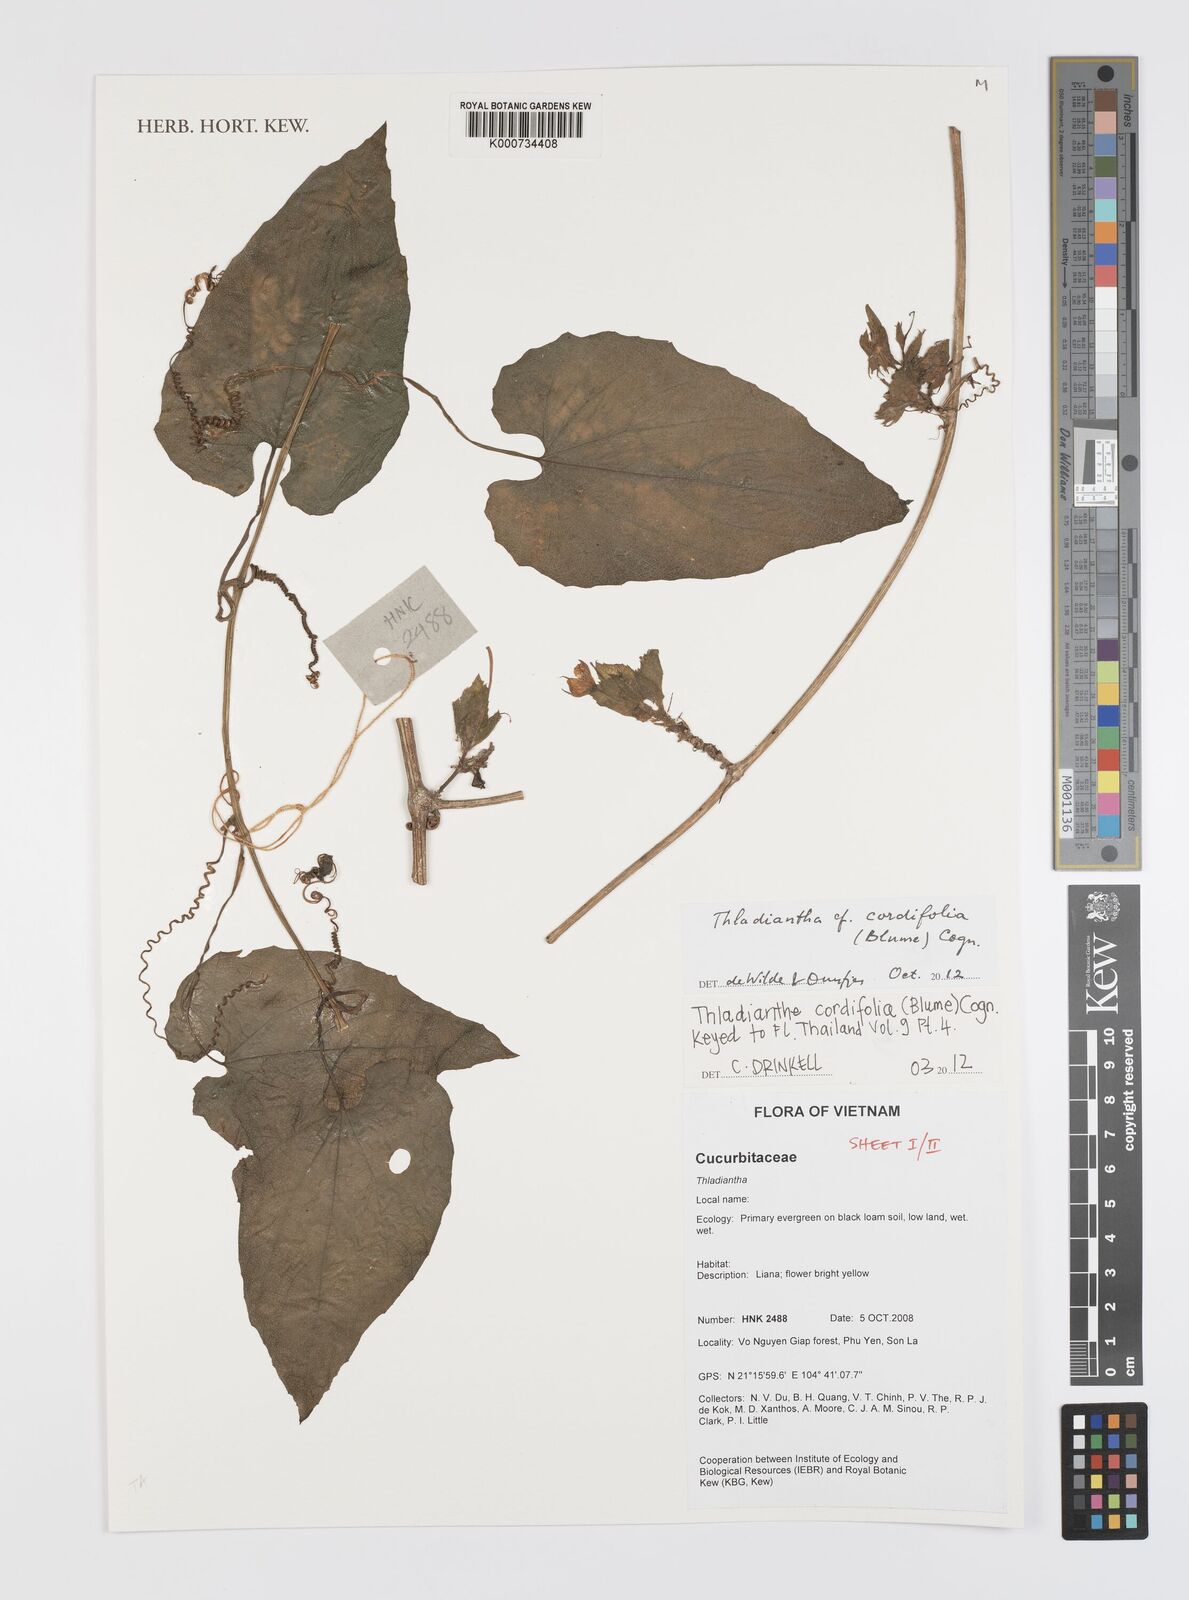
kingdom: Plantae
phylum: Tracheophyta
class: Magnoliopsida
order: Cucurbitales
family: Cucurbitaceae
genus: Thladiantha
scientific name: Thladiantha cordifolia
